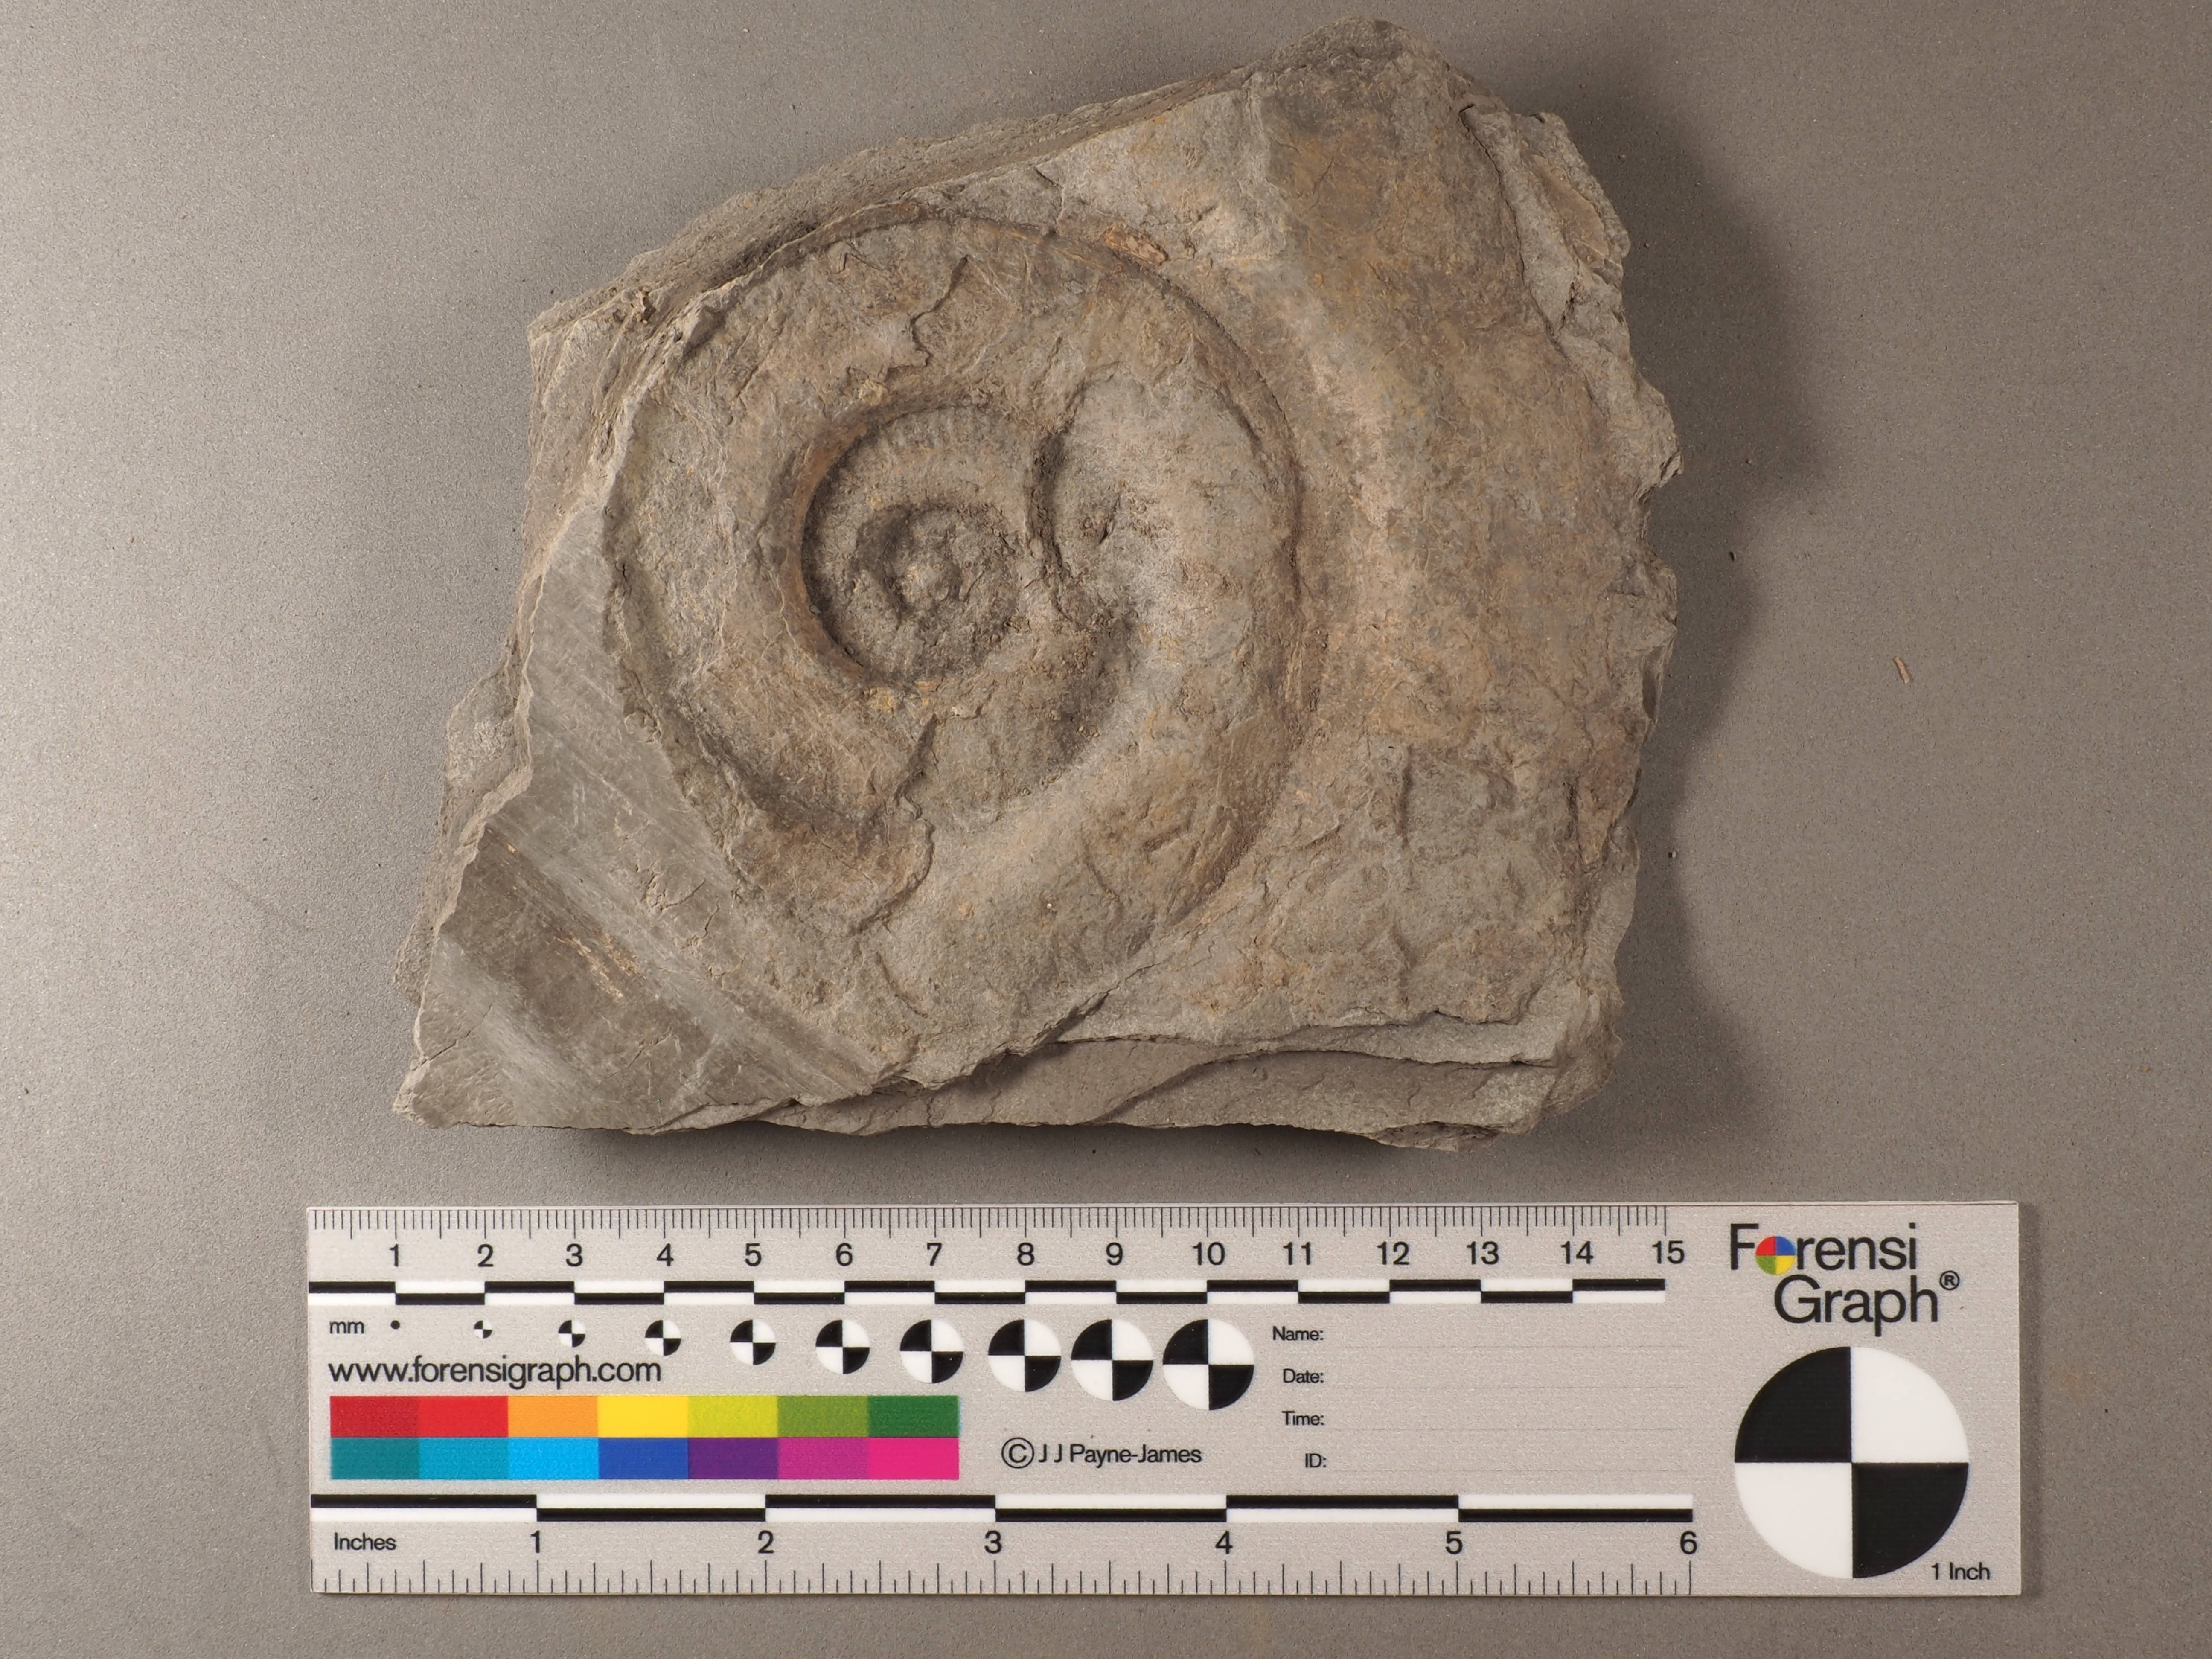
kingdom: Animalia
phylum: Mollusca
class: Cephalopoda
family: Hildoceratidae
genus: Hildaites
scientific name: Hildaites wrighti
